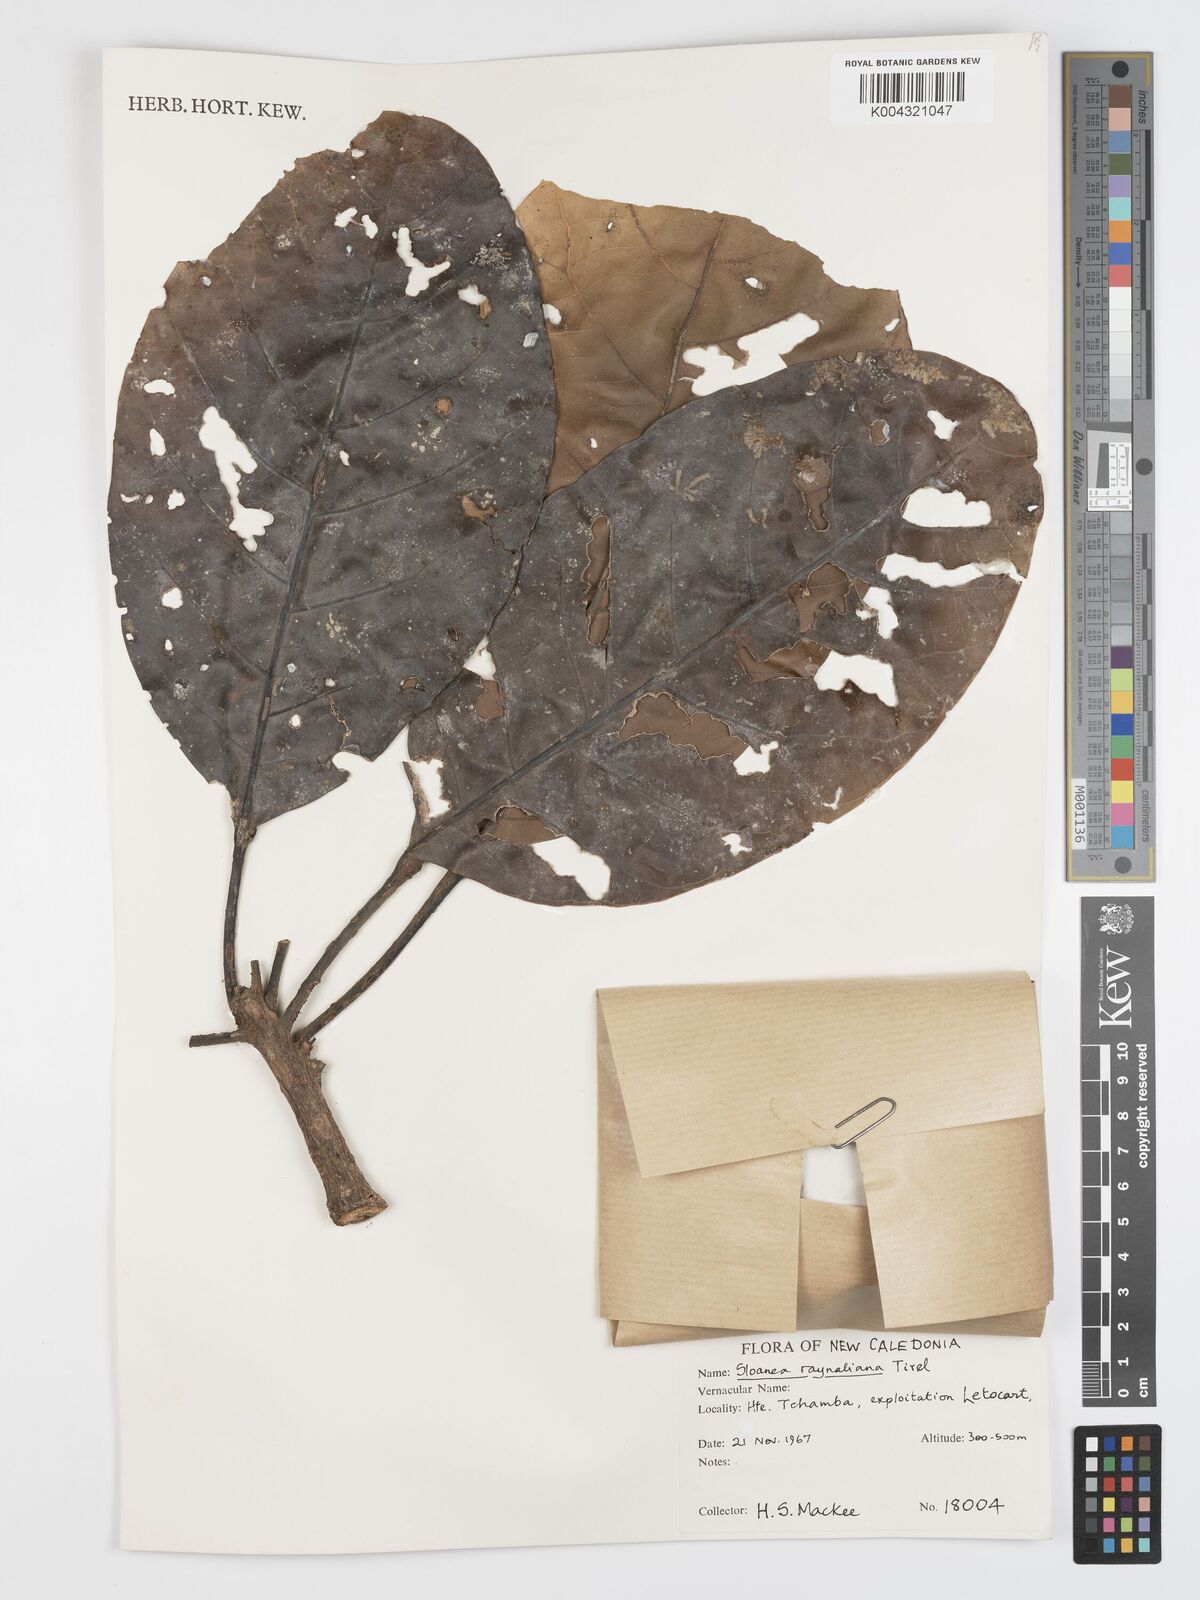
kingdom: Plantae
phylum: Tracheophyta
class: Magnoliopsida
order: Oxalidales
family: Elaeocarpaceae
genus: Sloanea
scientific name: Sloanea raynaliana
